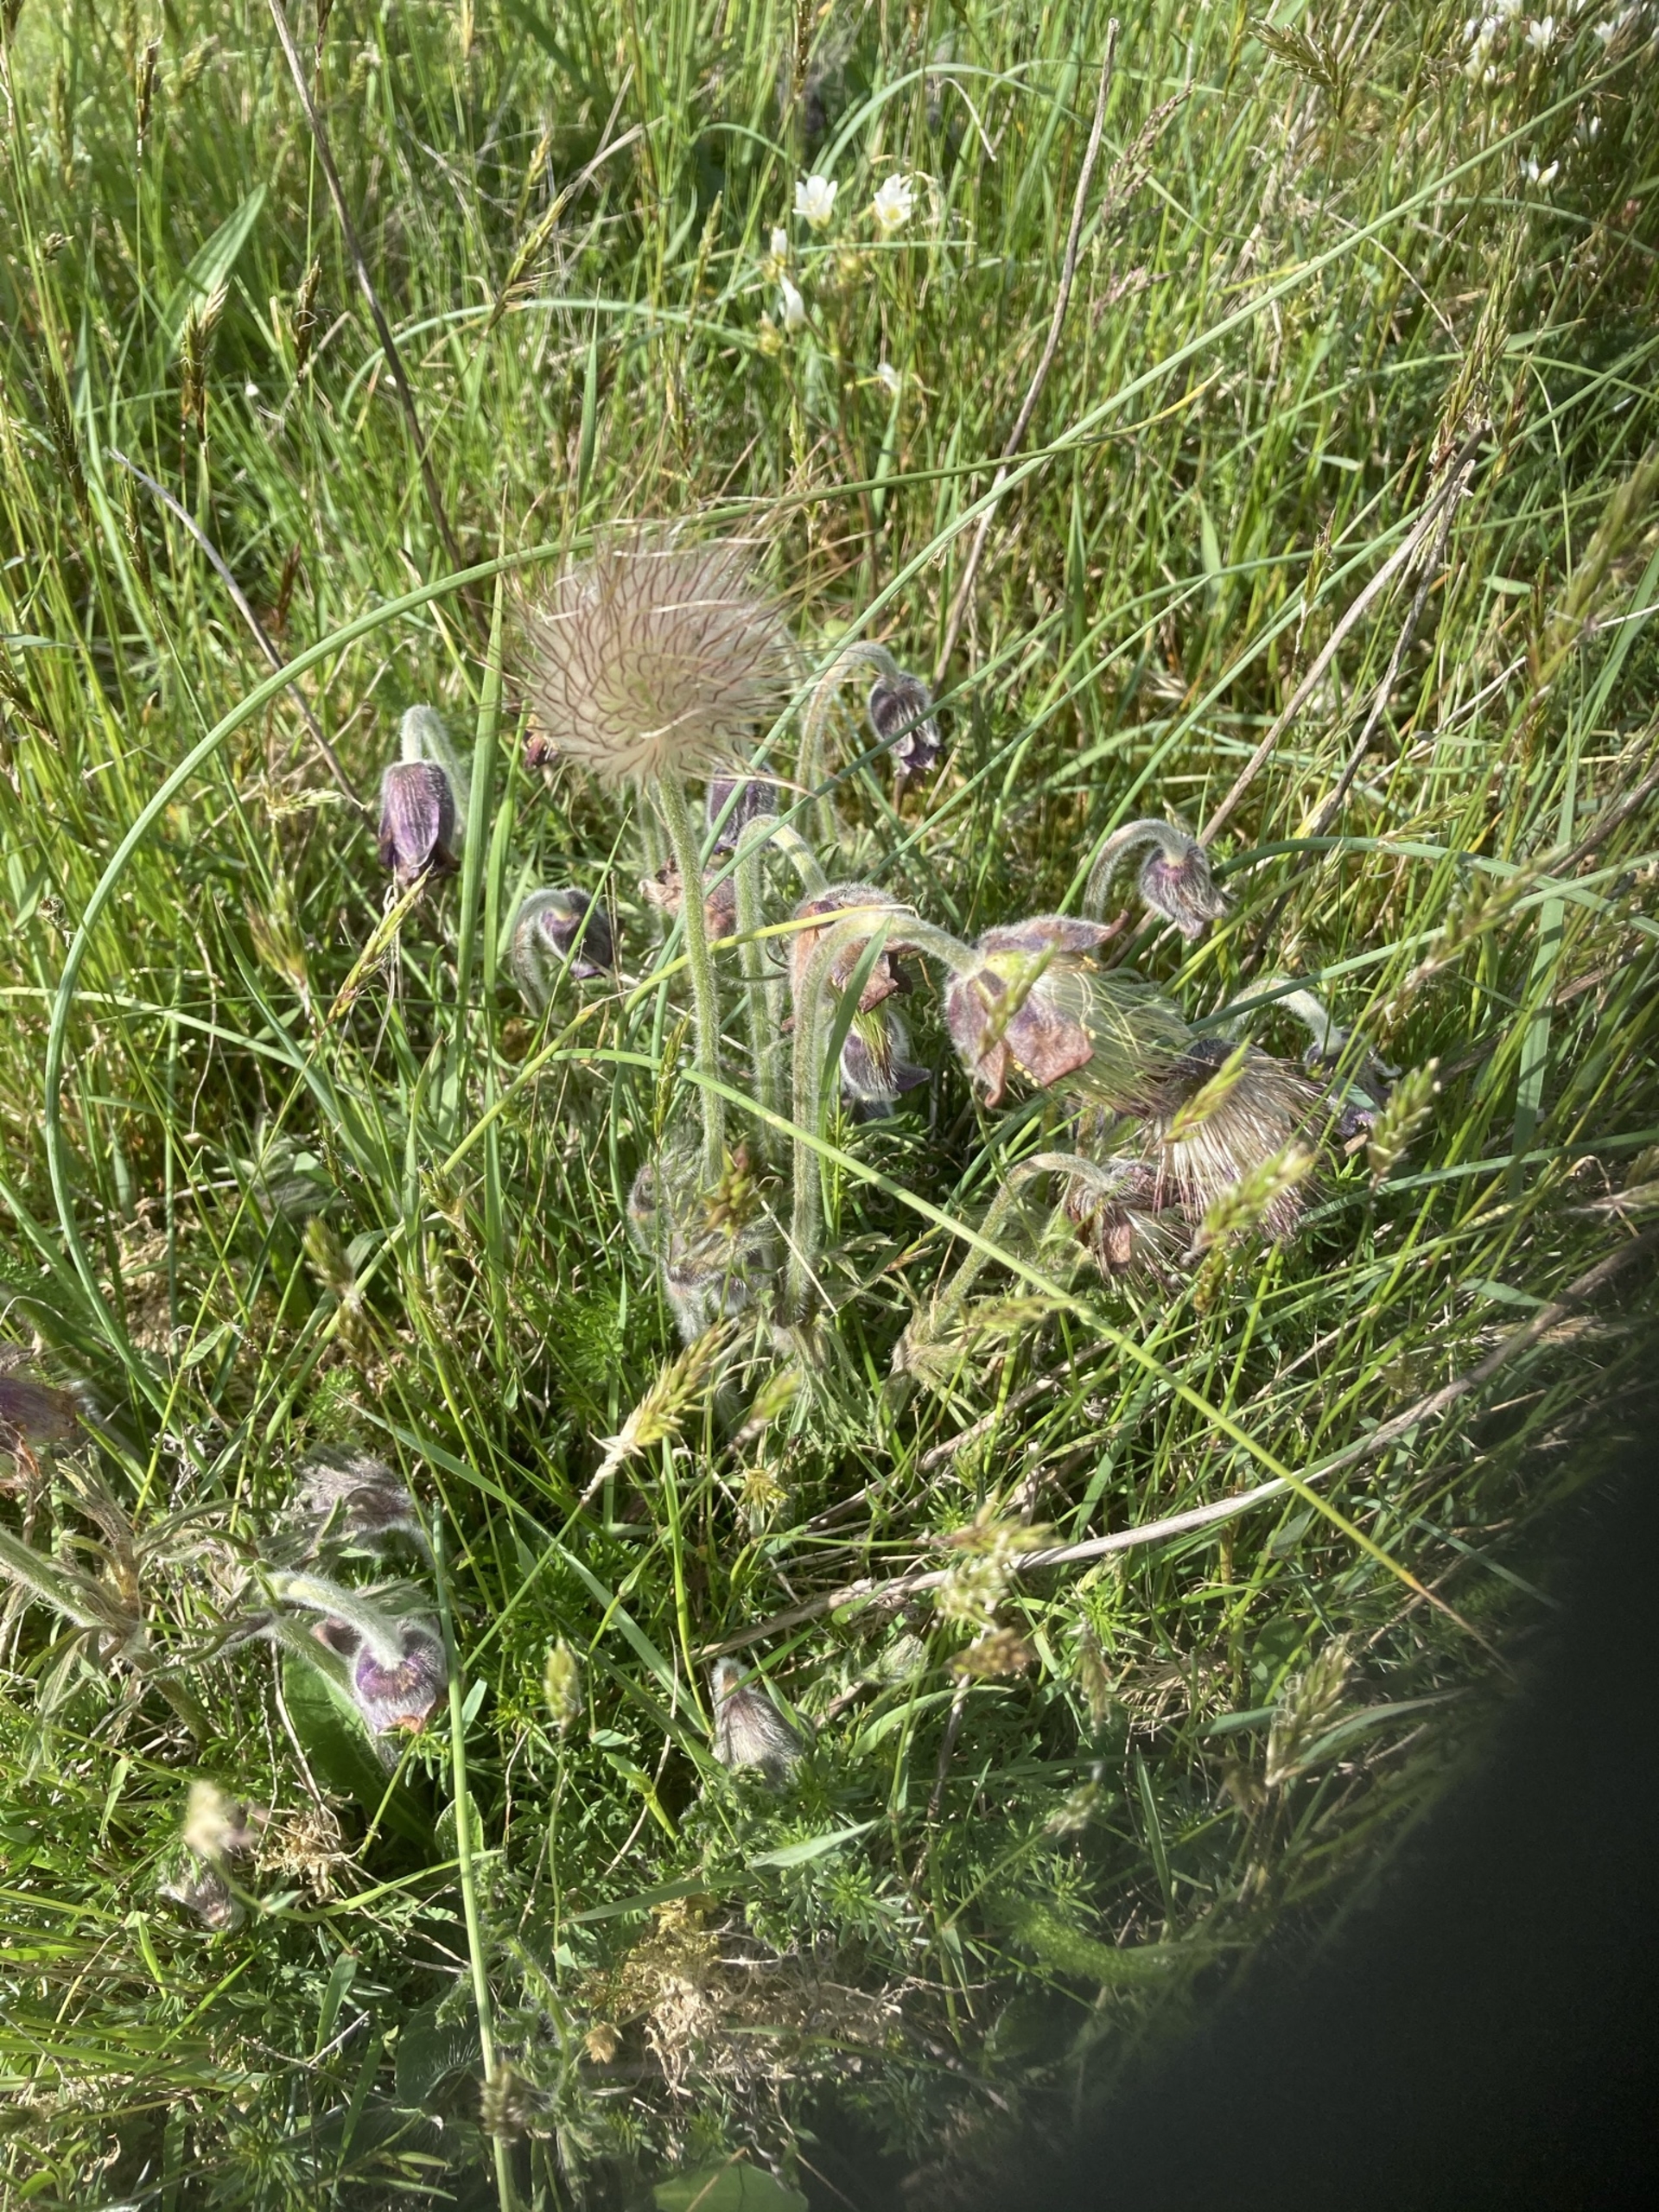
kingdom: Plantae
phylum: Tracheophyta
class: Magnoliopsida
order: Ranunculales
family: Ranunculaceae
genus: Pulsatilla
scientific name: Pulsatilla pratensis
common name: Nikkende kobjælde
